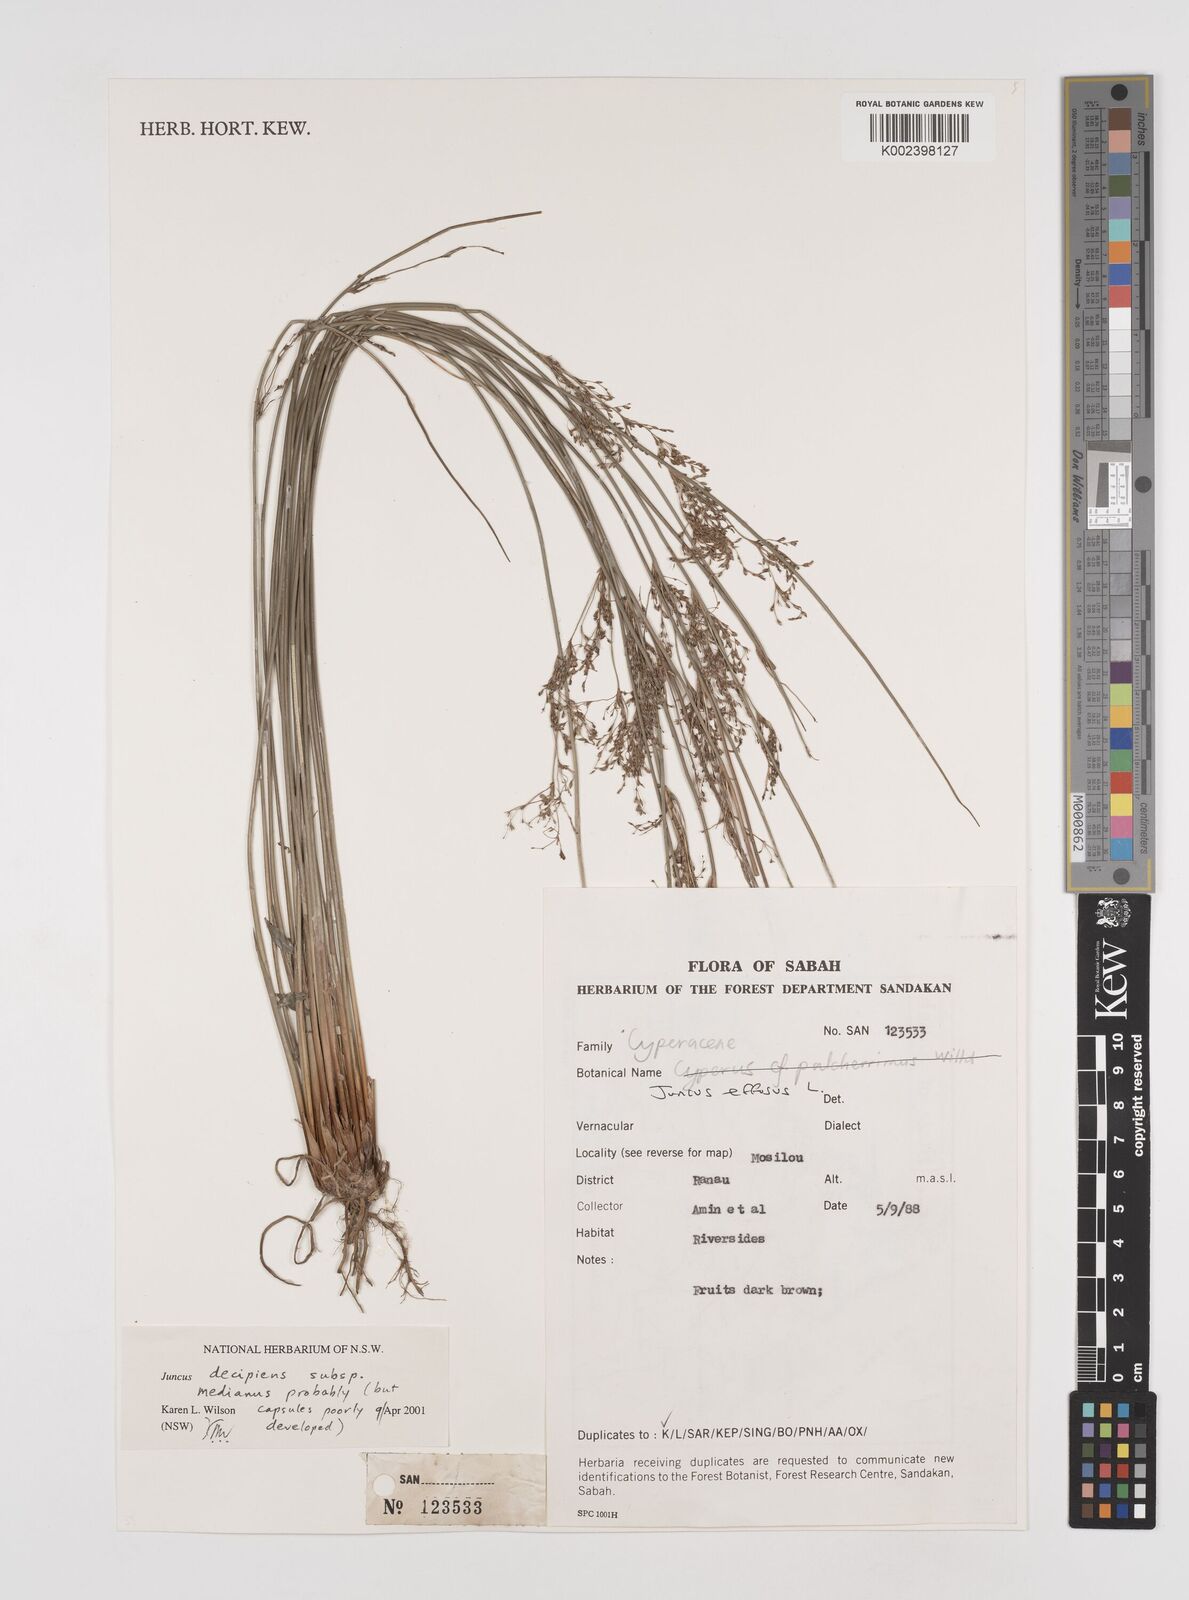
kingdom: Plantae
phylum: Tracheophyta
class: Liliopsida
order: Poales
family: Juncaceae
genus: Juncus
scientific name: Juncus decipiens
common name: Lamp rush
